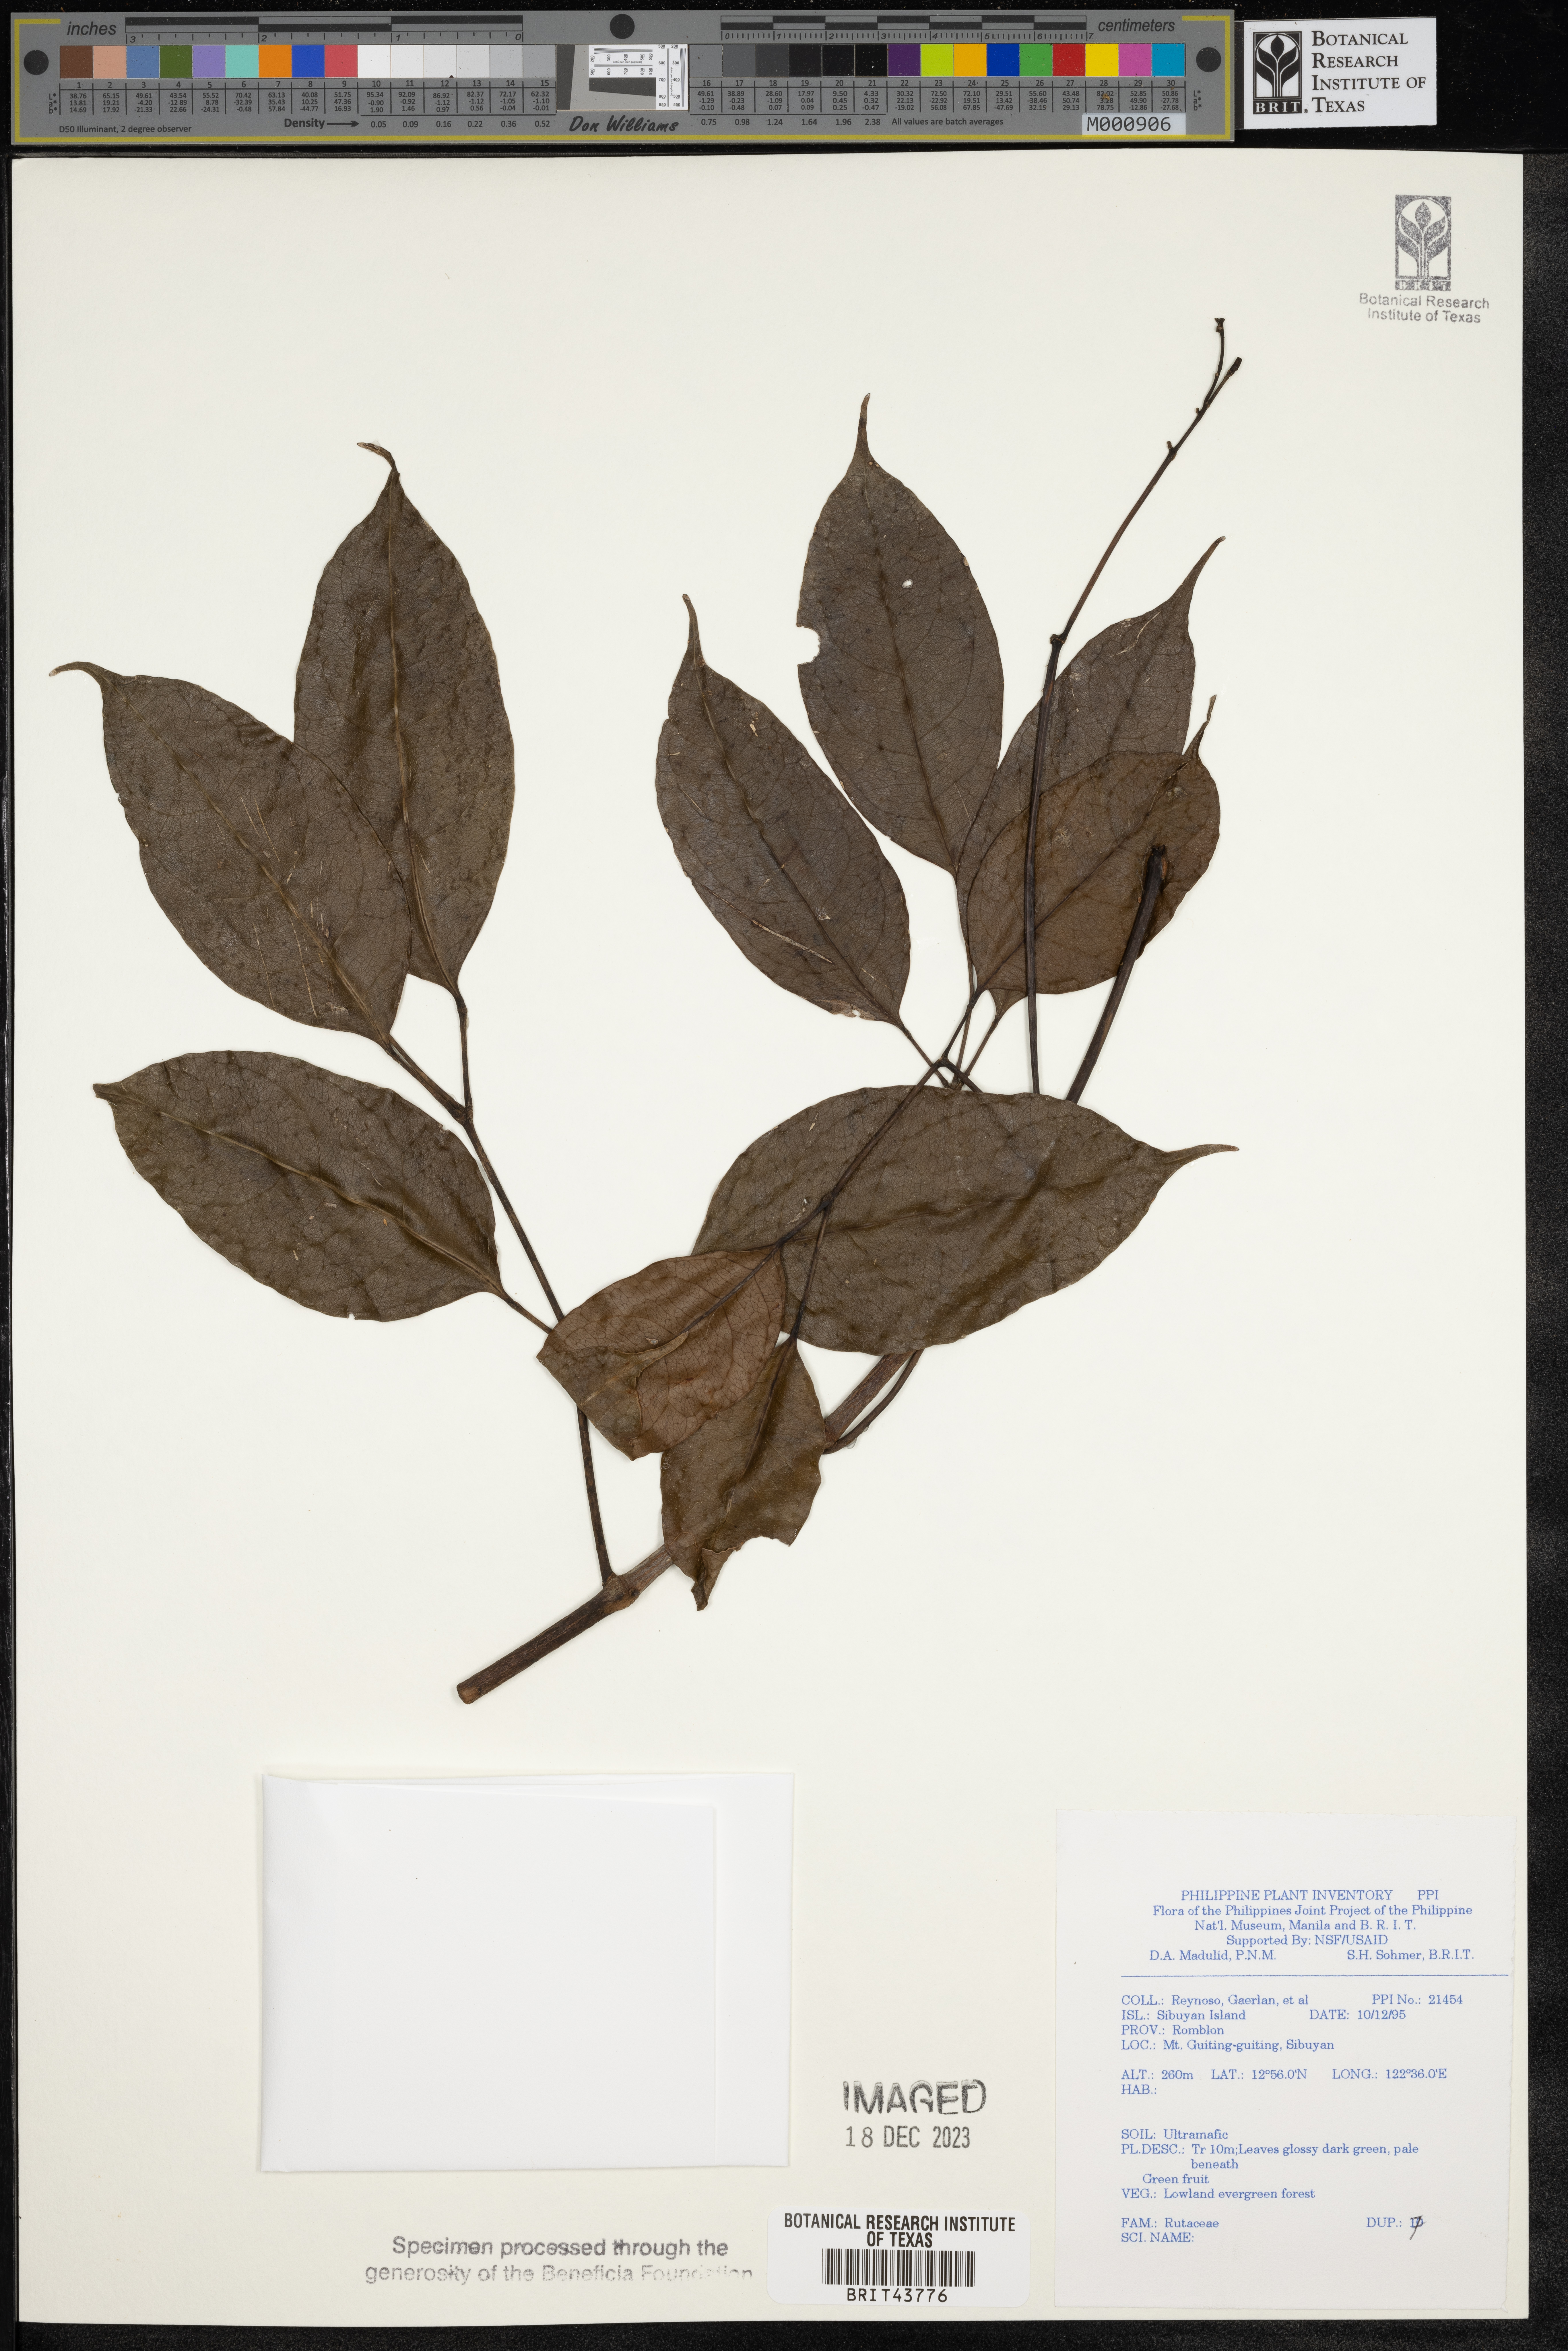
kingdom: Plantae
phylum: Tracheophyta
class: Magnoliopsida
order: Sapindales
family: Rutaceae
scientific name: Rutaceae
